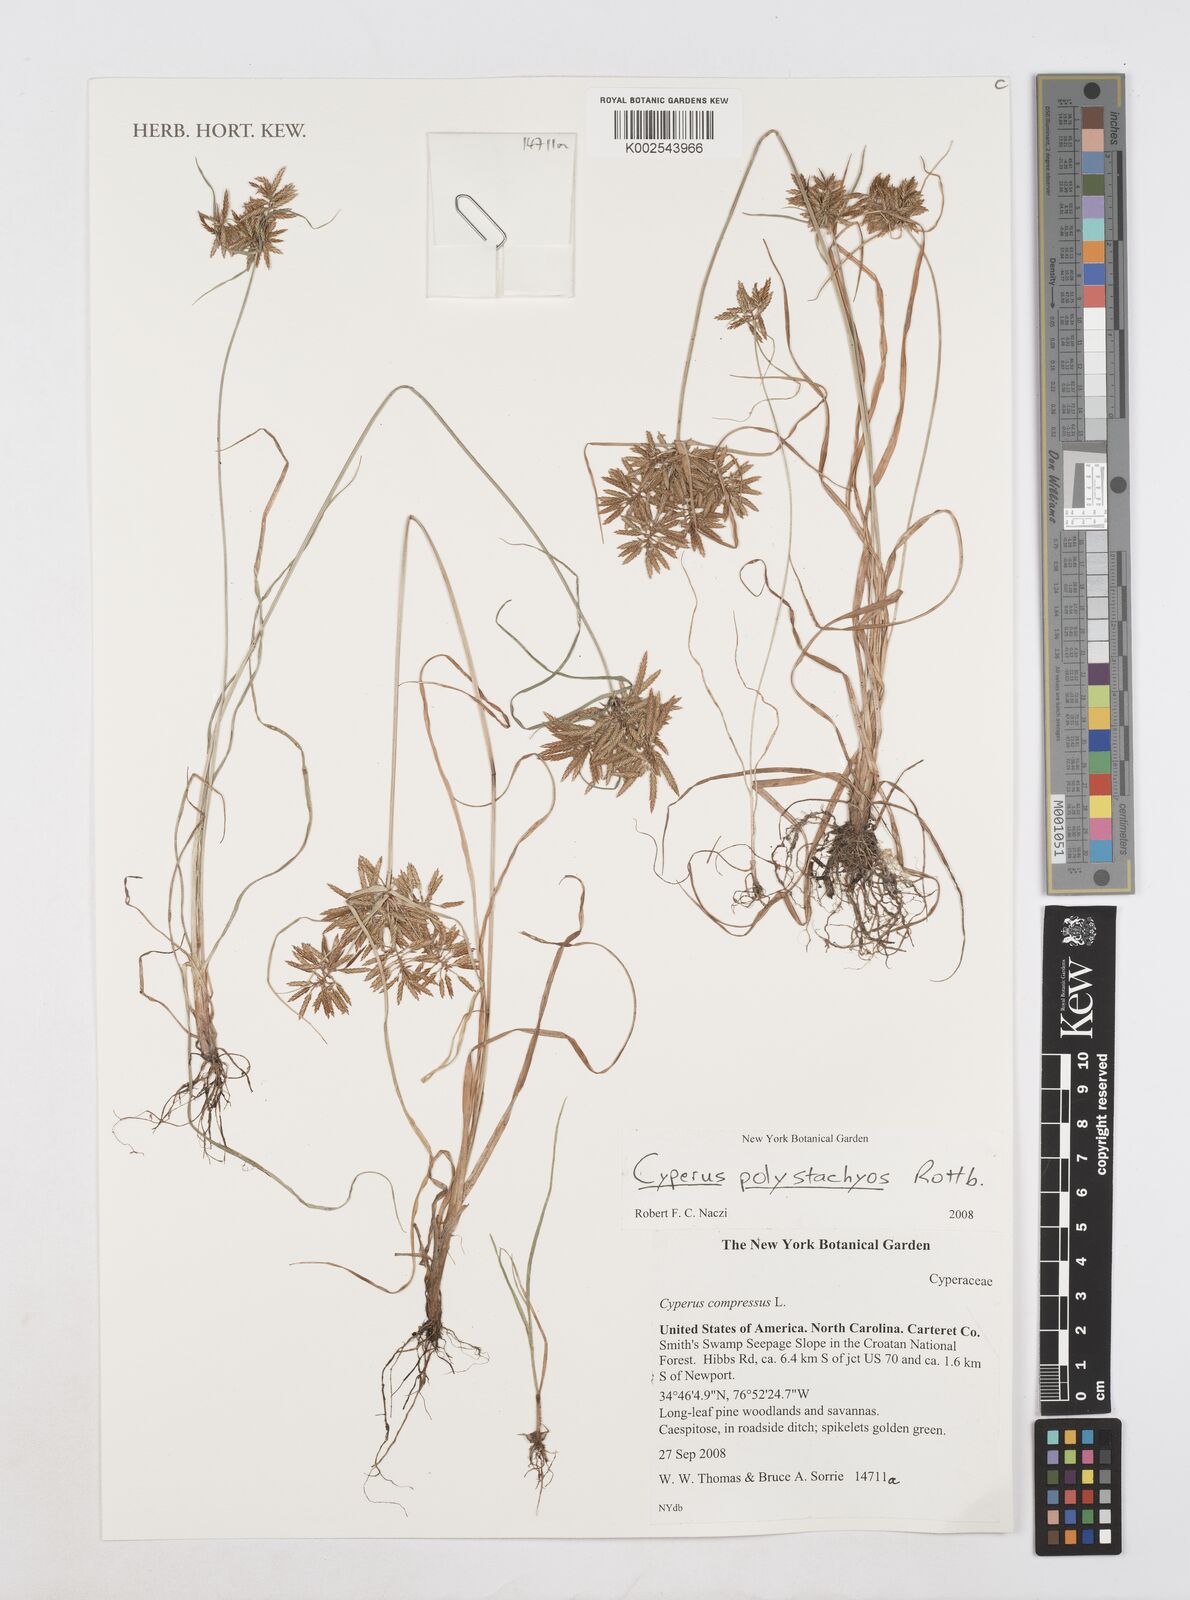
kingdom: Plantae
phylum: Tracheophyta
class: Liliopsida
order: Poales
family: Cyperaceae
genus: Cyperus
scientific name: Cyperus polystachyos
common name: Bunchy flat sedge
